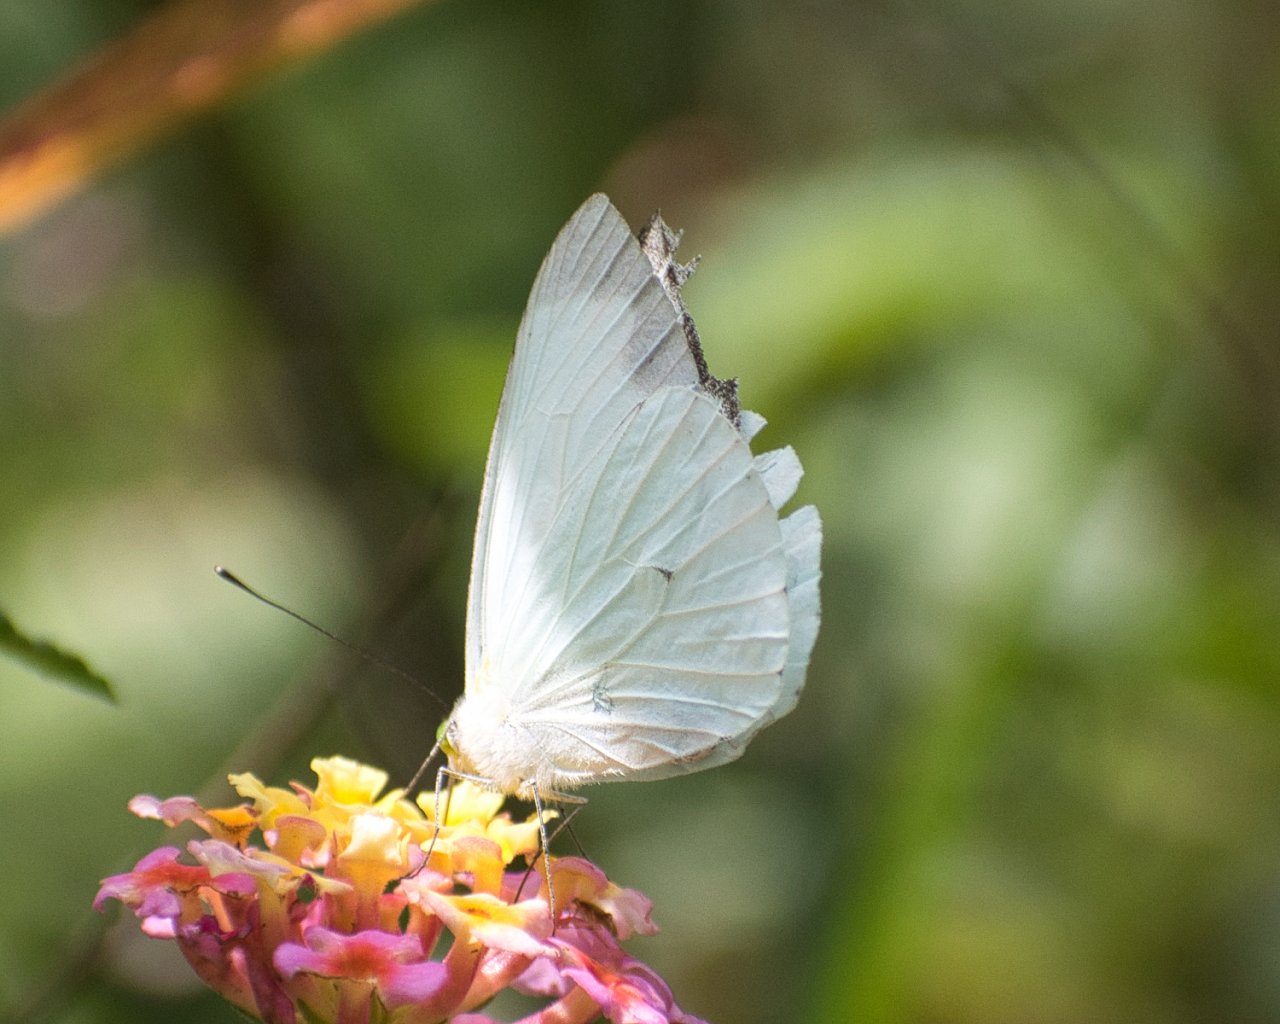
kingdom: Animalia
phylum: Arthropoda
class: Insecta
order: Lepidoptera
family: Pieridae
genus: Leptophobia
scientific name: Leptophobia
